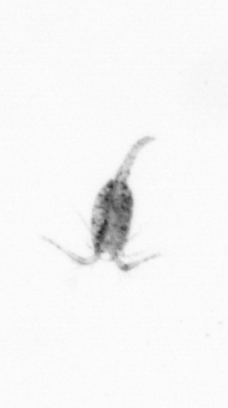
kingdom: Animalia
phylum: Arthropoda
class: Copepoda
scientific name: Copepoda
